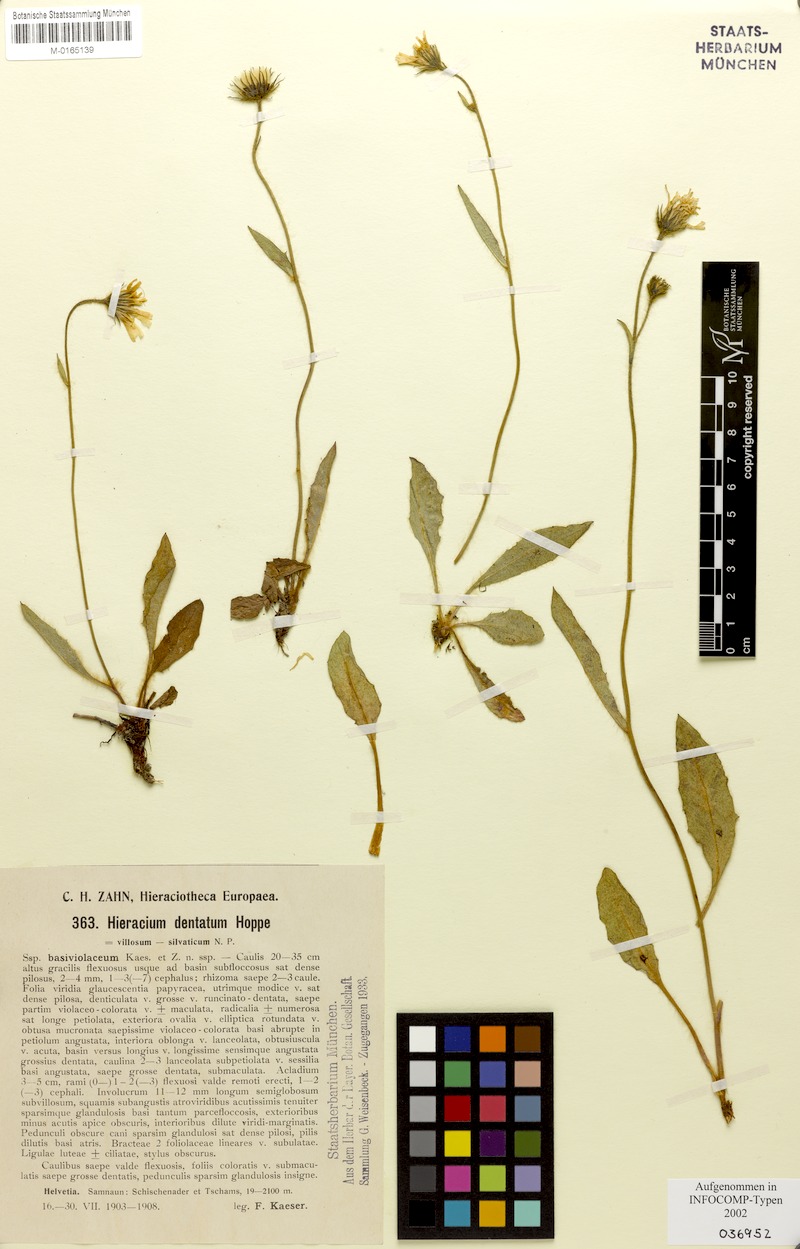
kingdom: Plantae
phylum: Tracheophyta
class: Magnoliopsida
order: Asterales
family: Asteraceae
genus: Hieracium
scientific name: Hieracium dentatum
